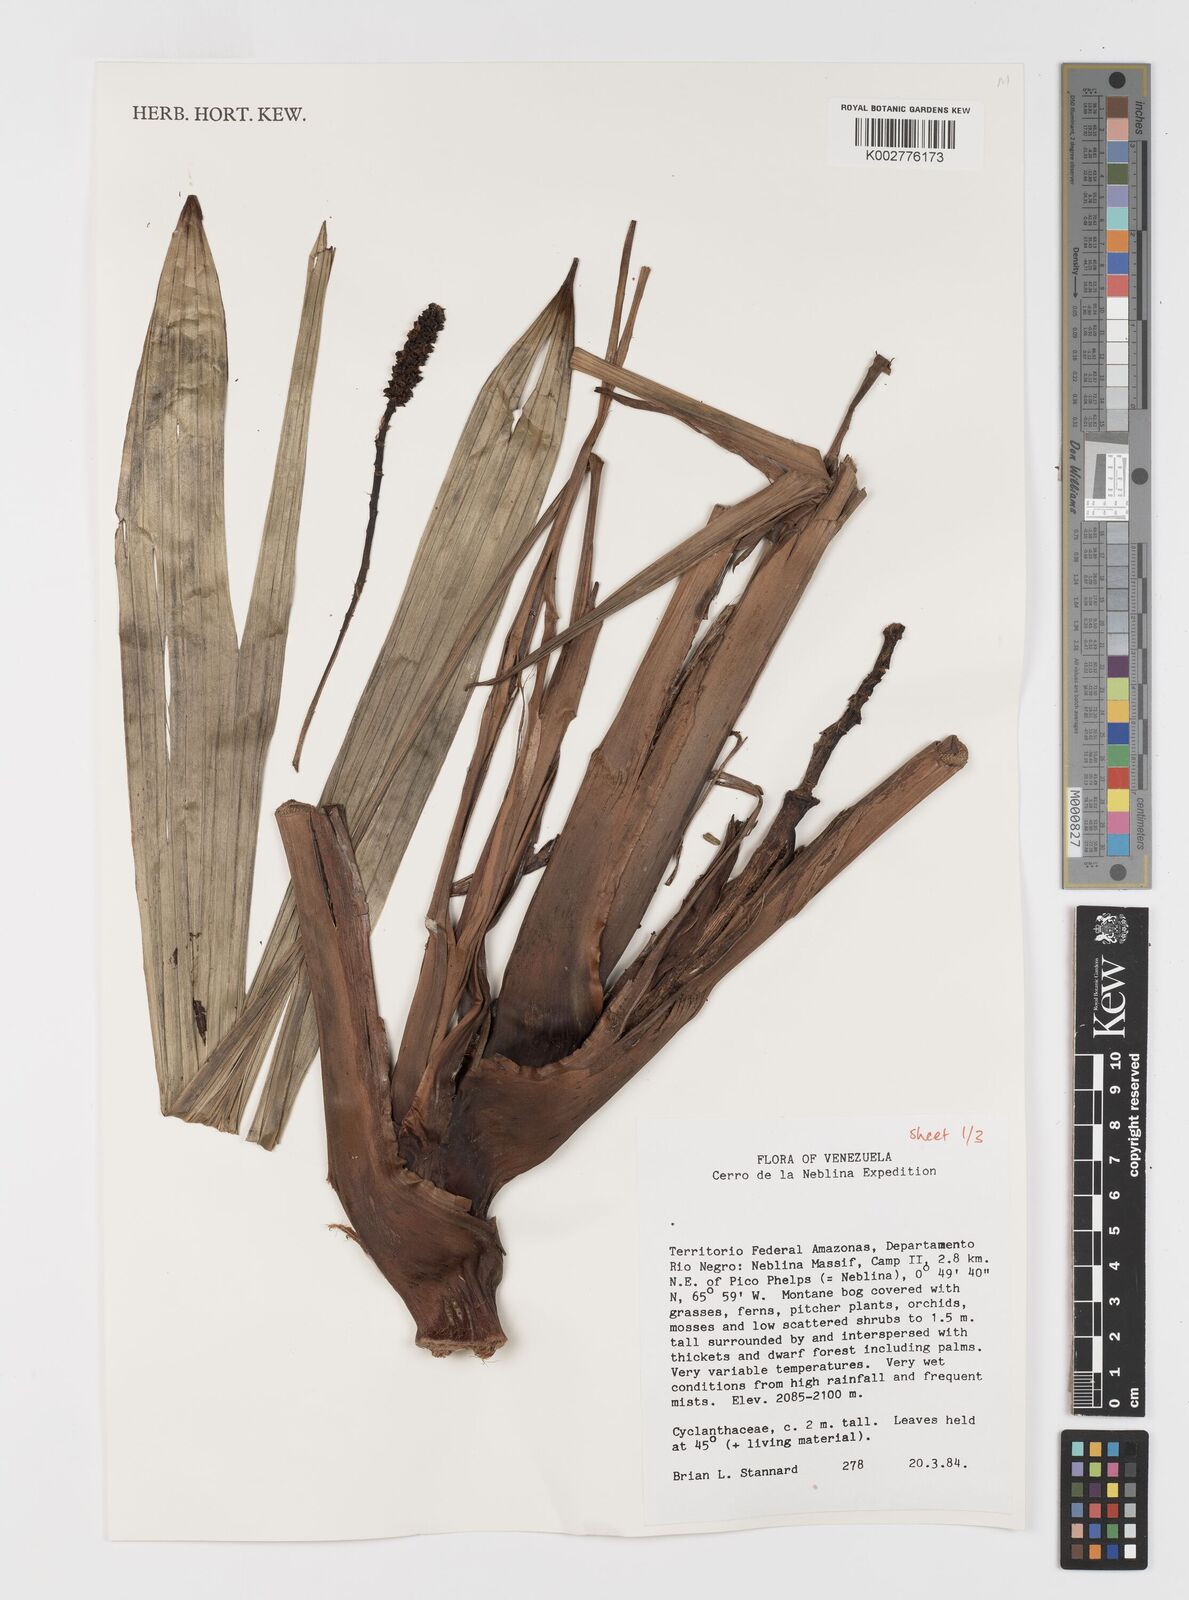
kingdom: Plantae
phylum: Tracheophyta
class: Liliopsida
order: Pandanales
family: Cyclanthaceae
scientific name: Cyclanthaceae
